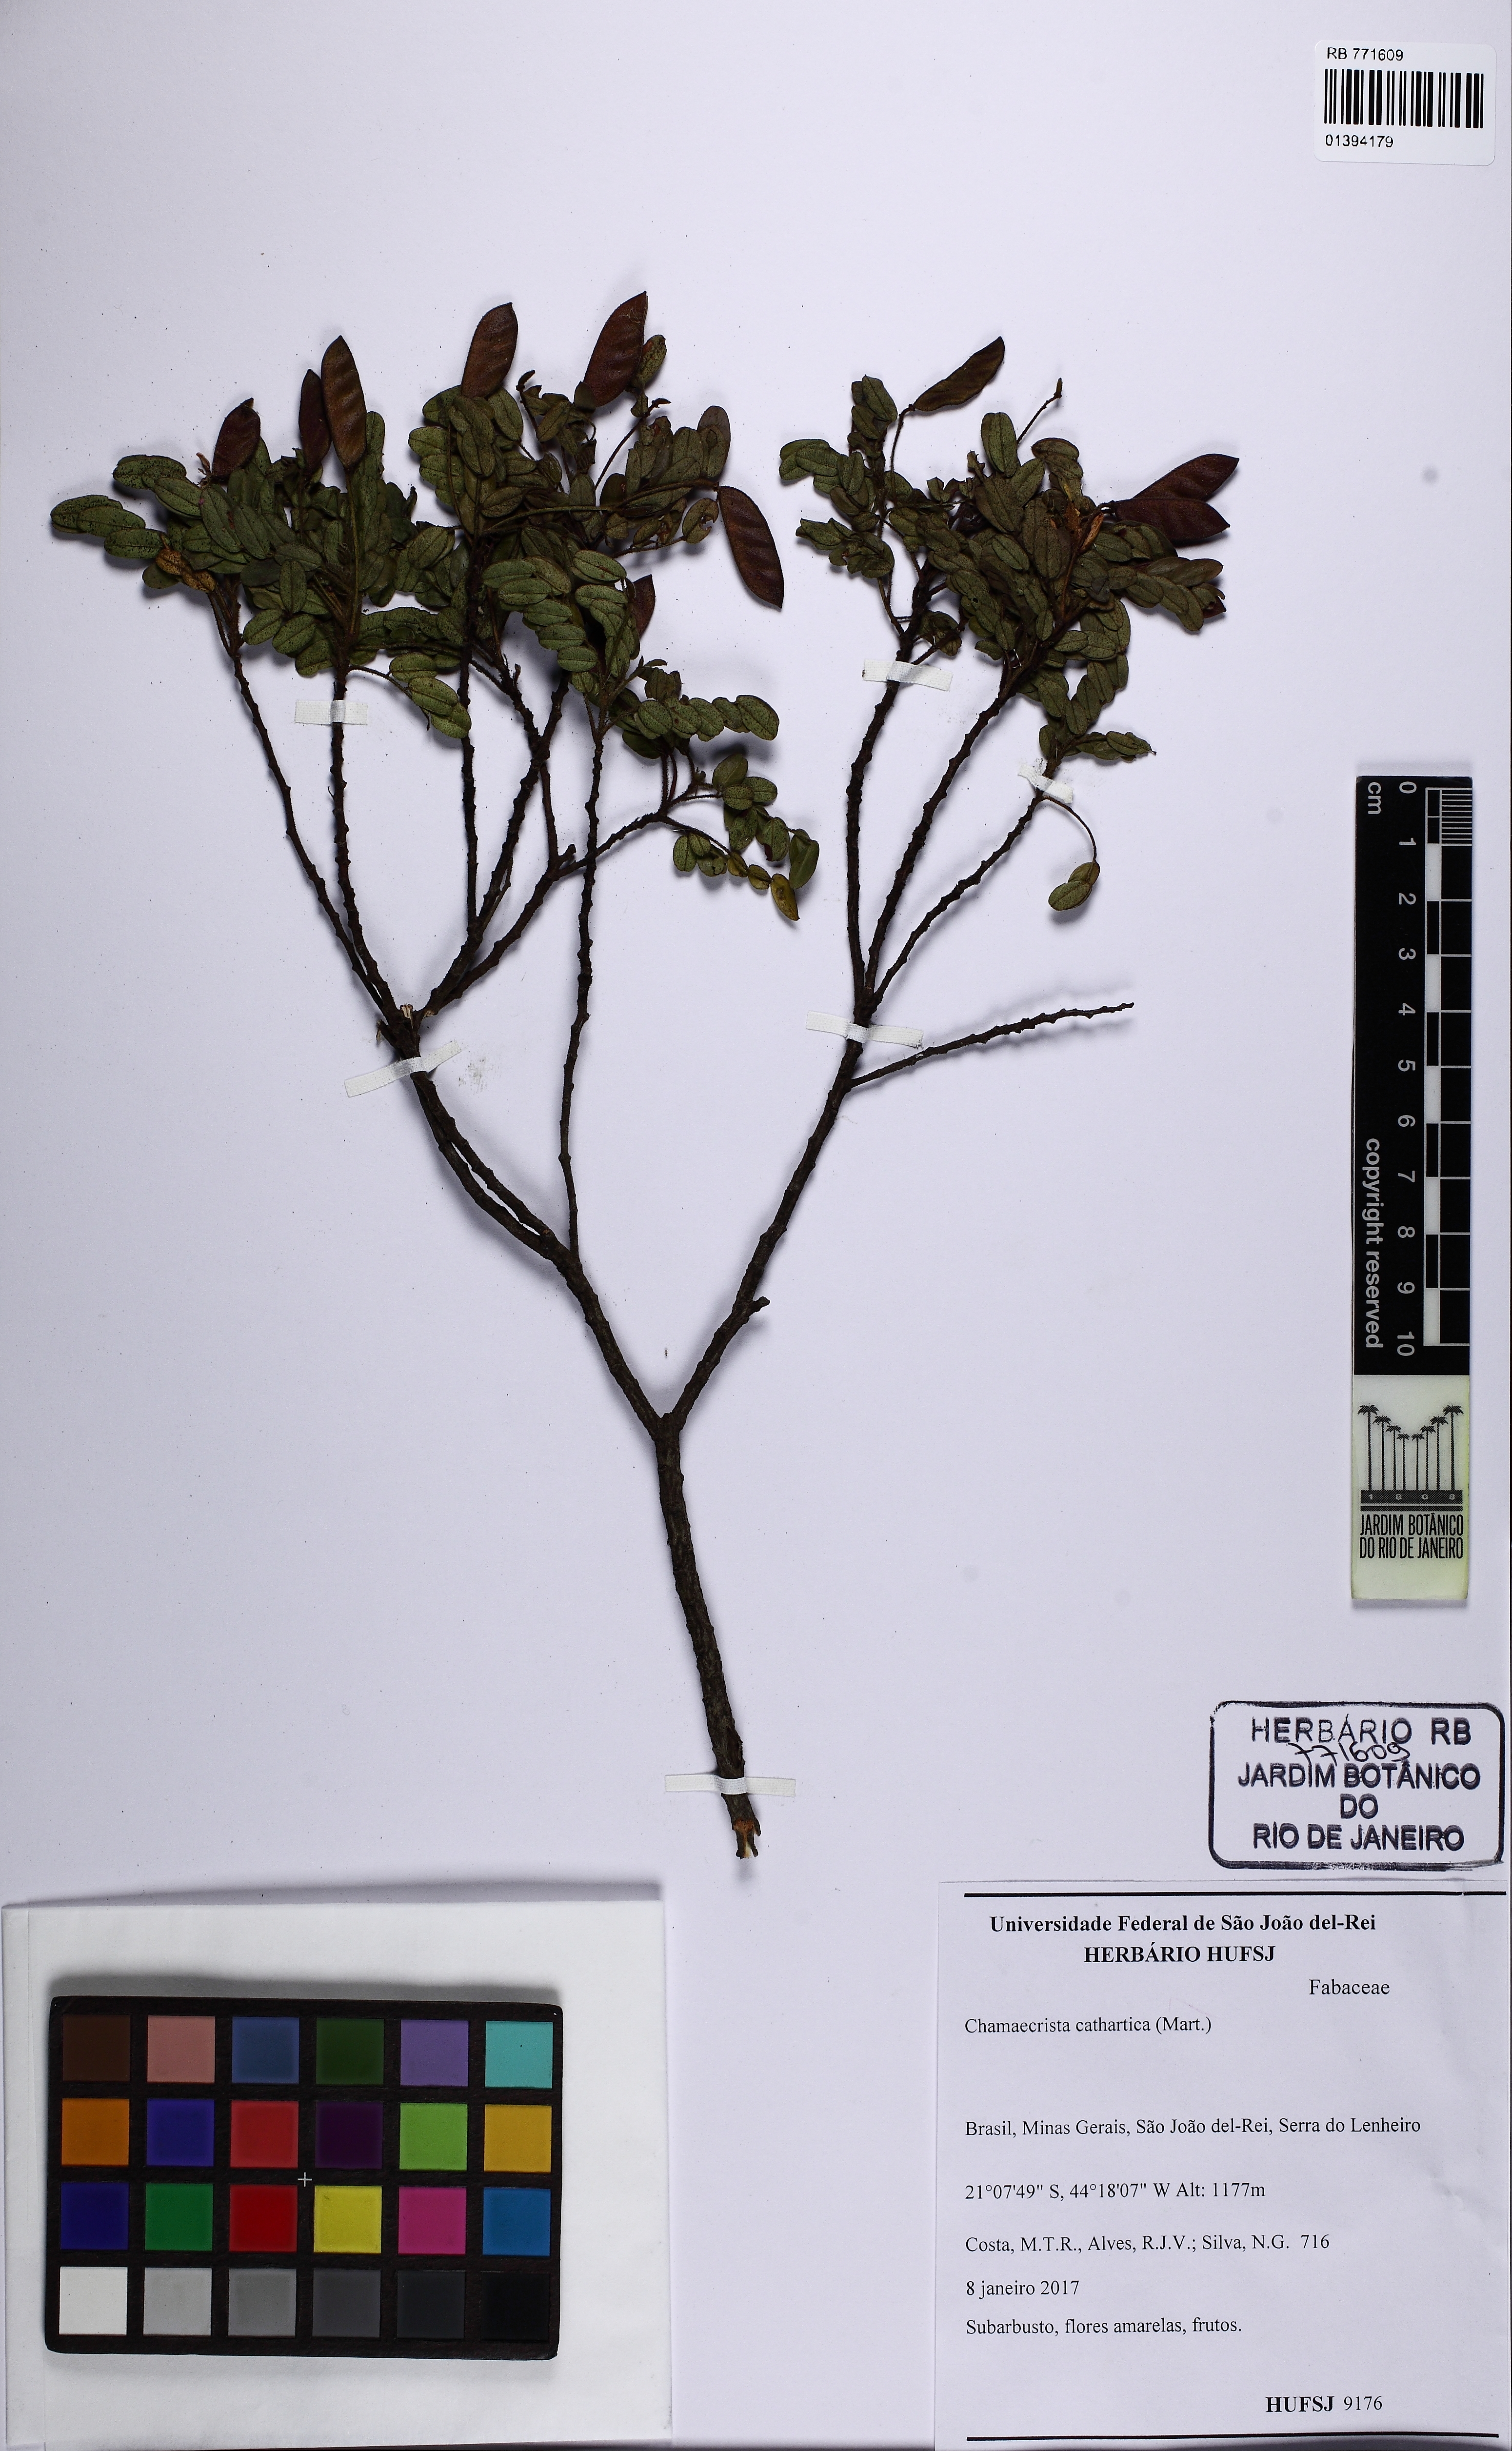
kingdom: Plantae
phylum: Tracheophyta
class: Magnoliopsida
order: Fabales
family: Fabaceae
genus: Chamaecrista
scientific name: Chamaecrista cathartica
